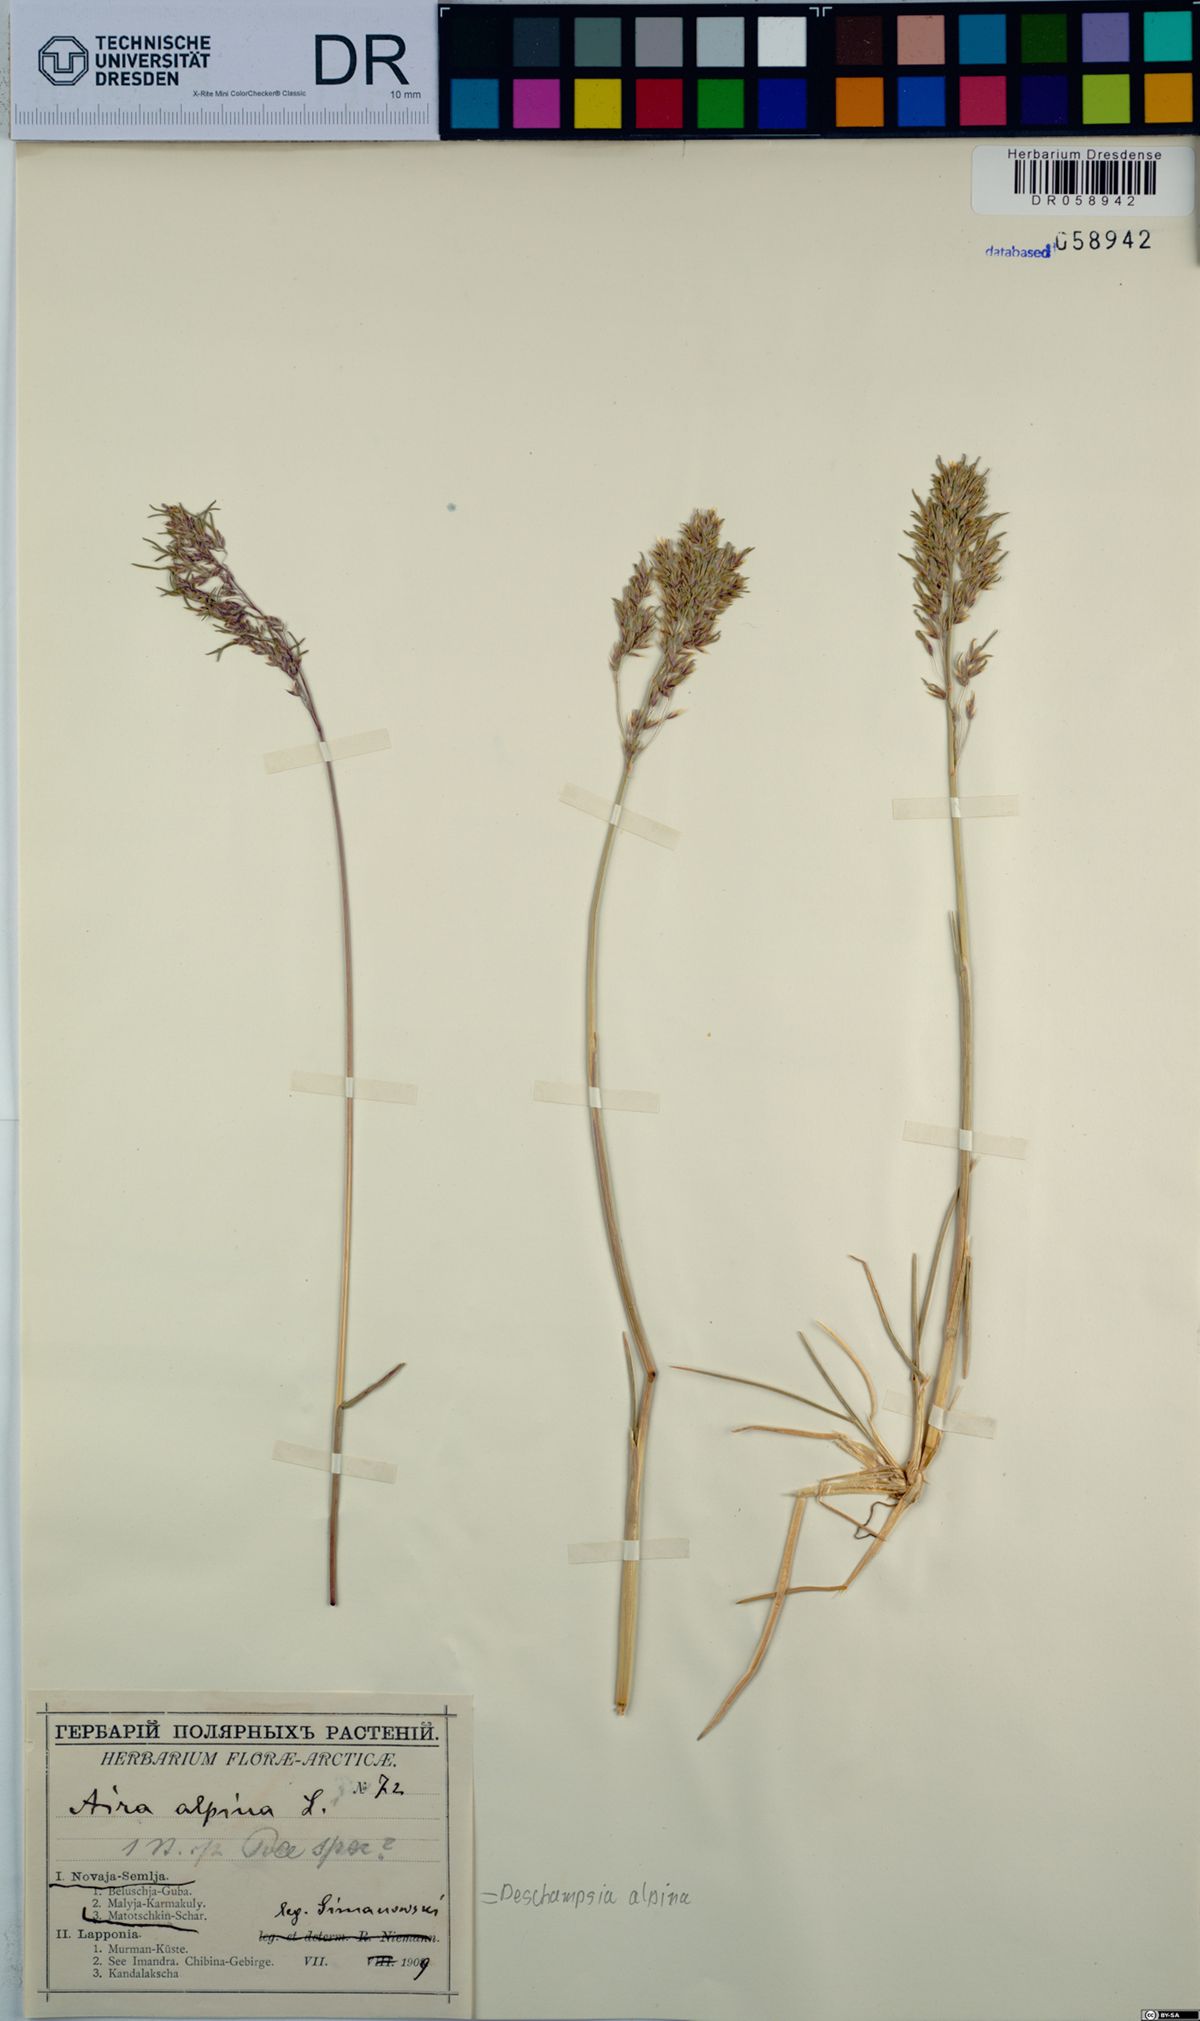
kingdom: Plantae
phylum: Tracheophyta
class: Liliopsida
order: Poales
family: Poaceae
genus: Deschampsia
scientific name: Deschampsia cespitosa
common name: Tufted hair-grass
